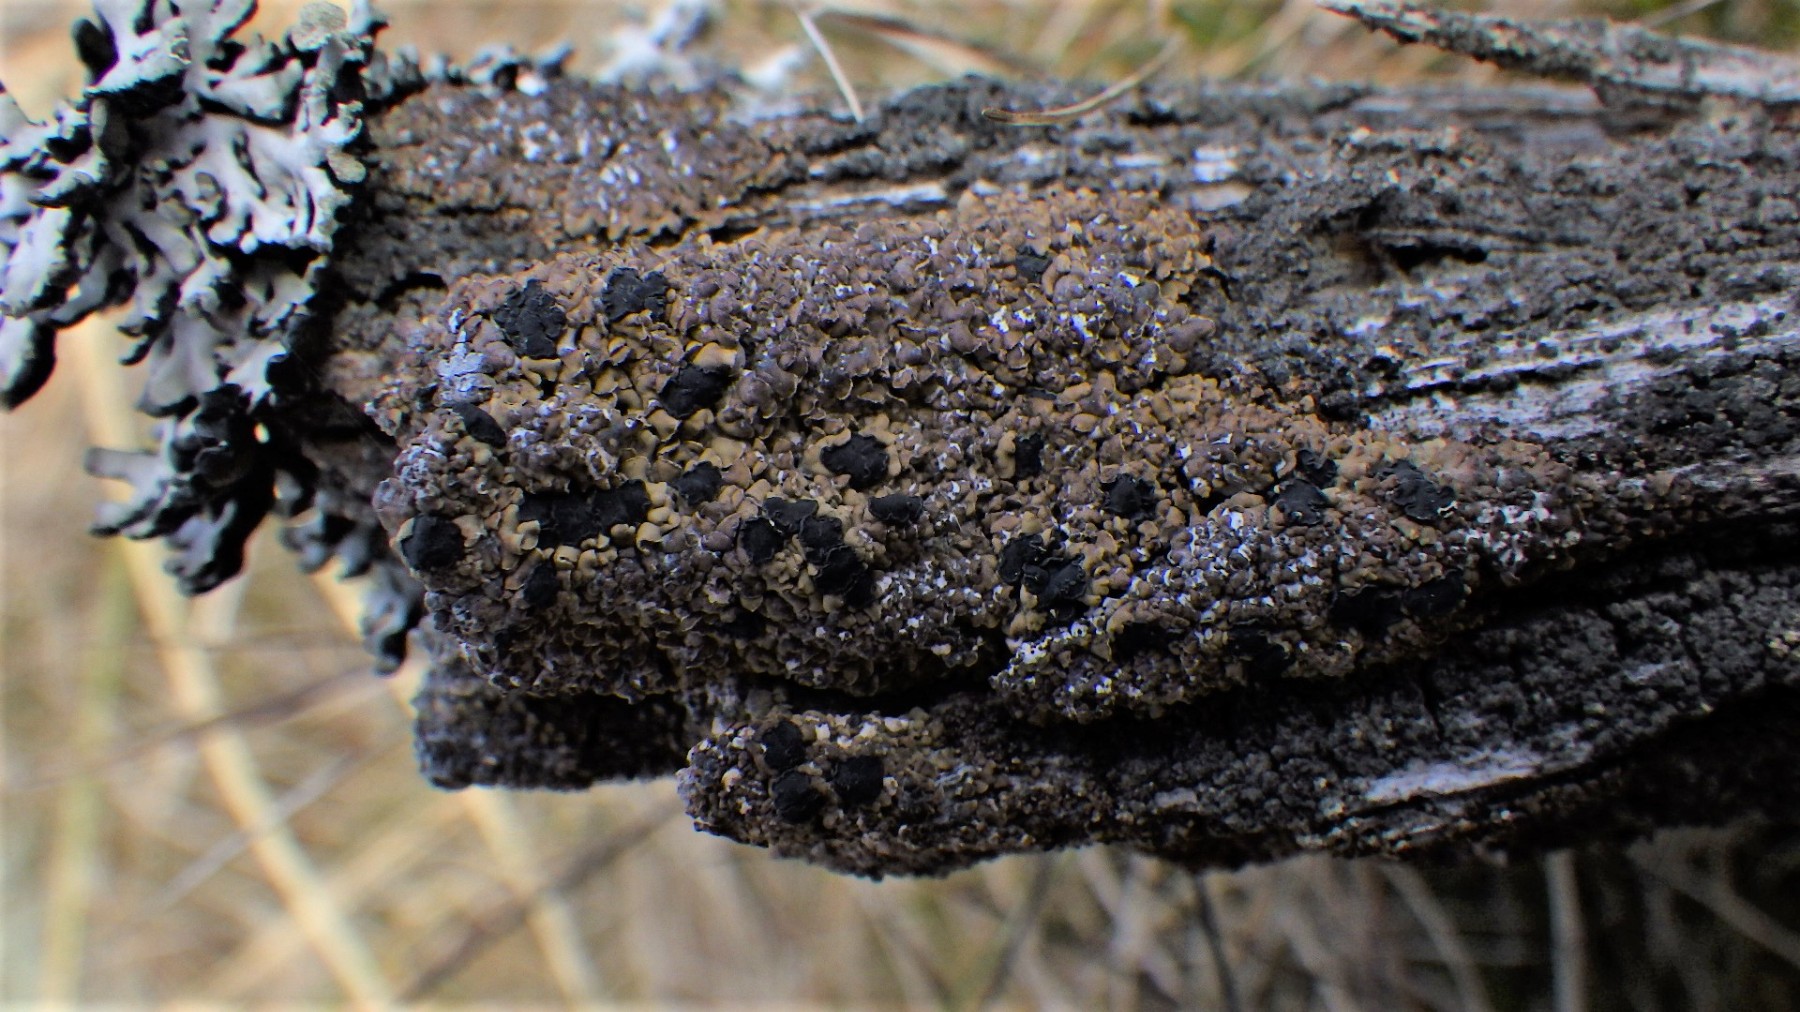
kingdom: Fungi
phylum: Ascomycota
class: Lecanoromycetes
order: Umbilicariales
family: Ophioparmaceae
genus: Hypocenomyce
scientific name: Hypocenomyce scalaris
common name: småskællet muslinglav
